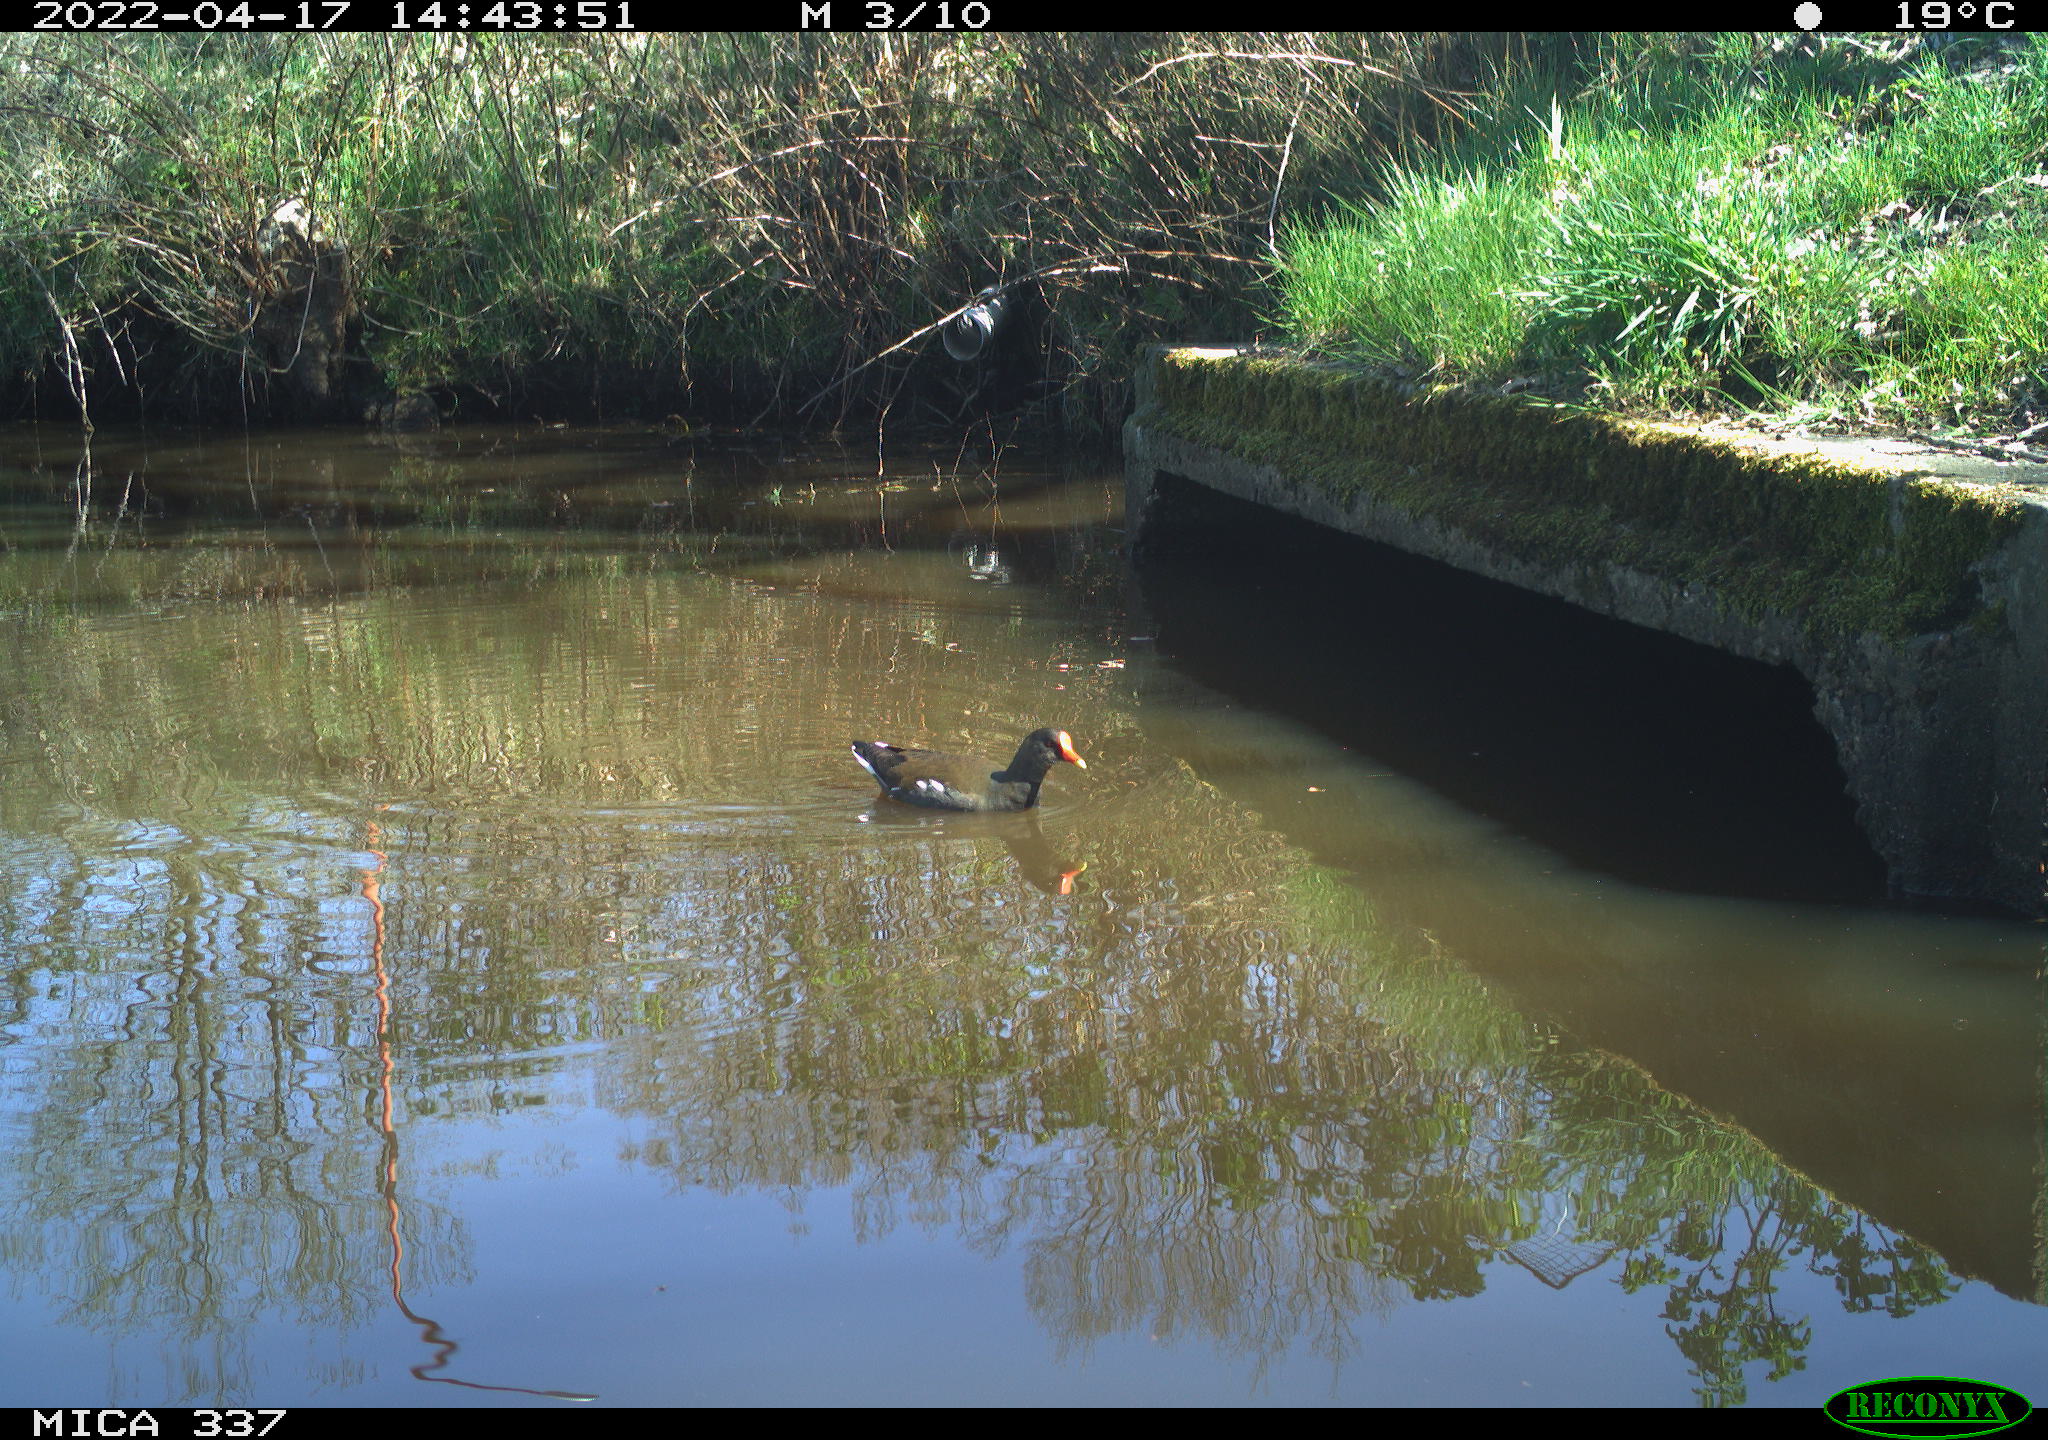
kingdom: Animalia
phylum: Chordata
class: Aves
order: Gruiformes
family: Rallidae
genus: Gallinula
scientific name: Gallinula chloropus
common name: Common moorhen
